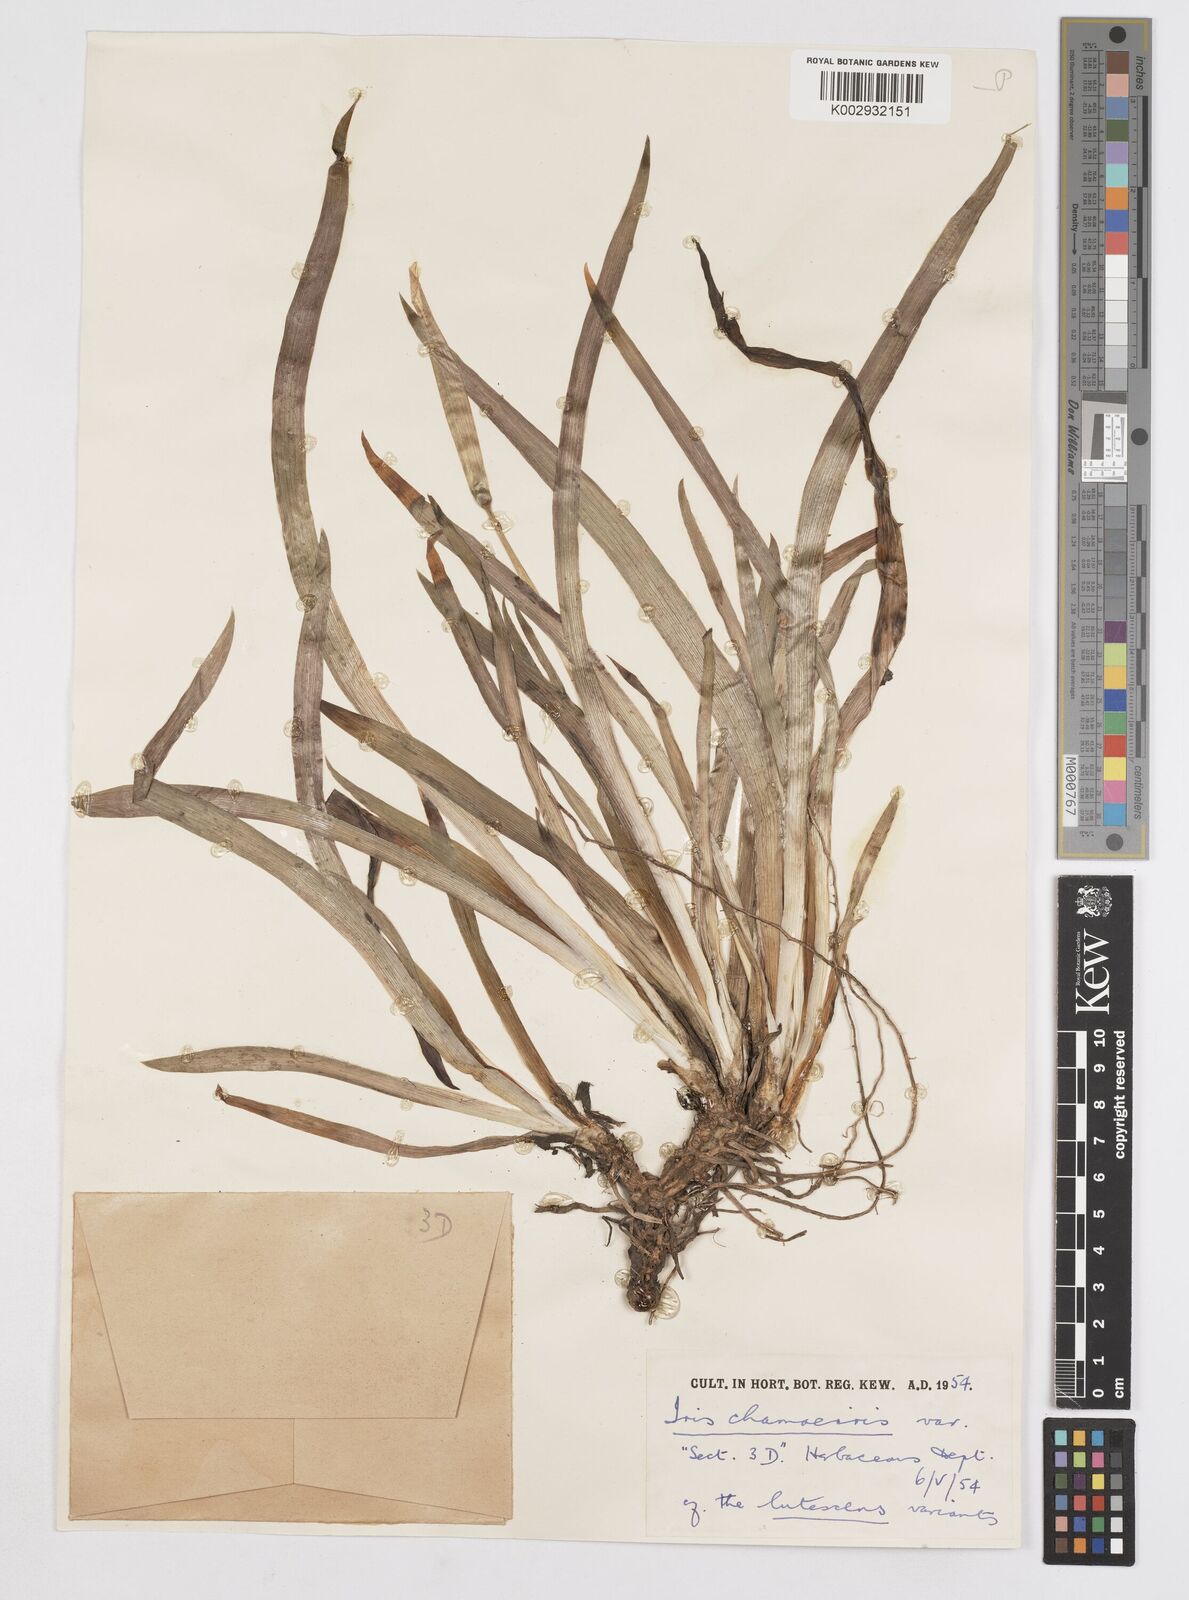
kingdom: Plantae
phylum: Tracheophyta
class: Liliopsida
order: Asparagales
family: Iridaceae
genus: Iris
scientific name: Iris lutescens
